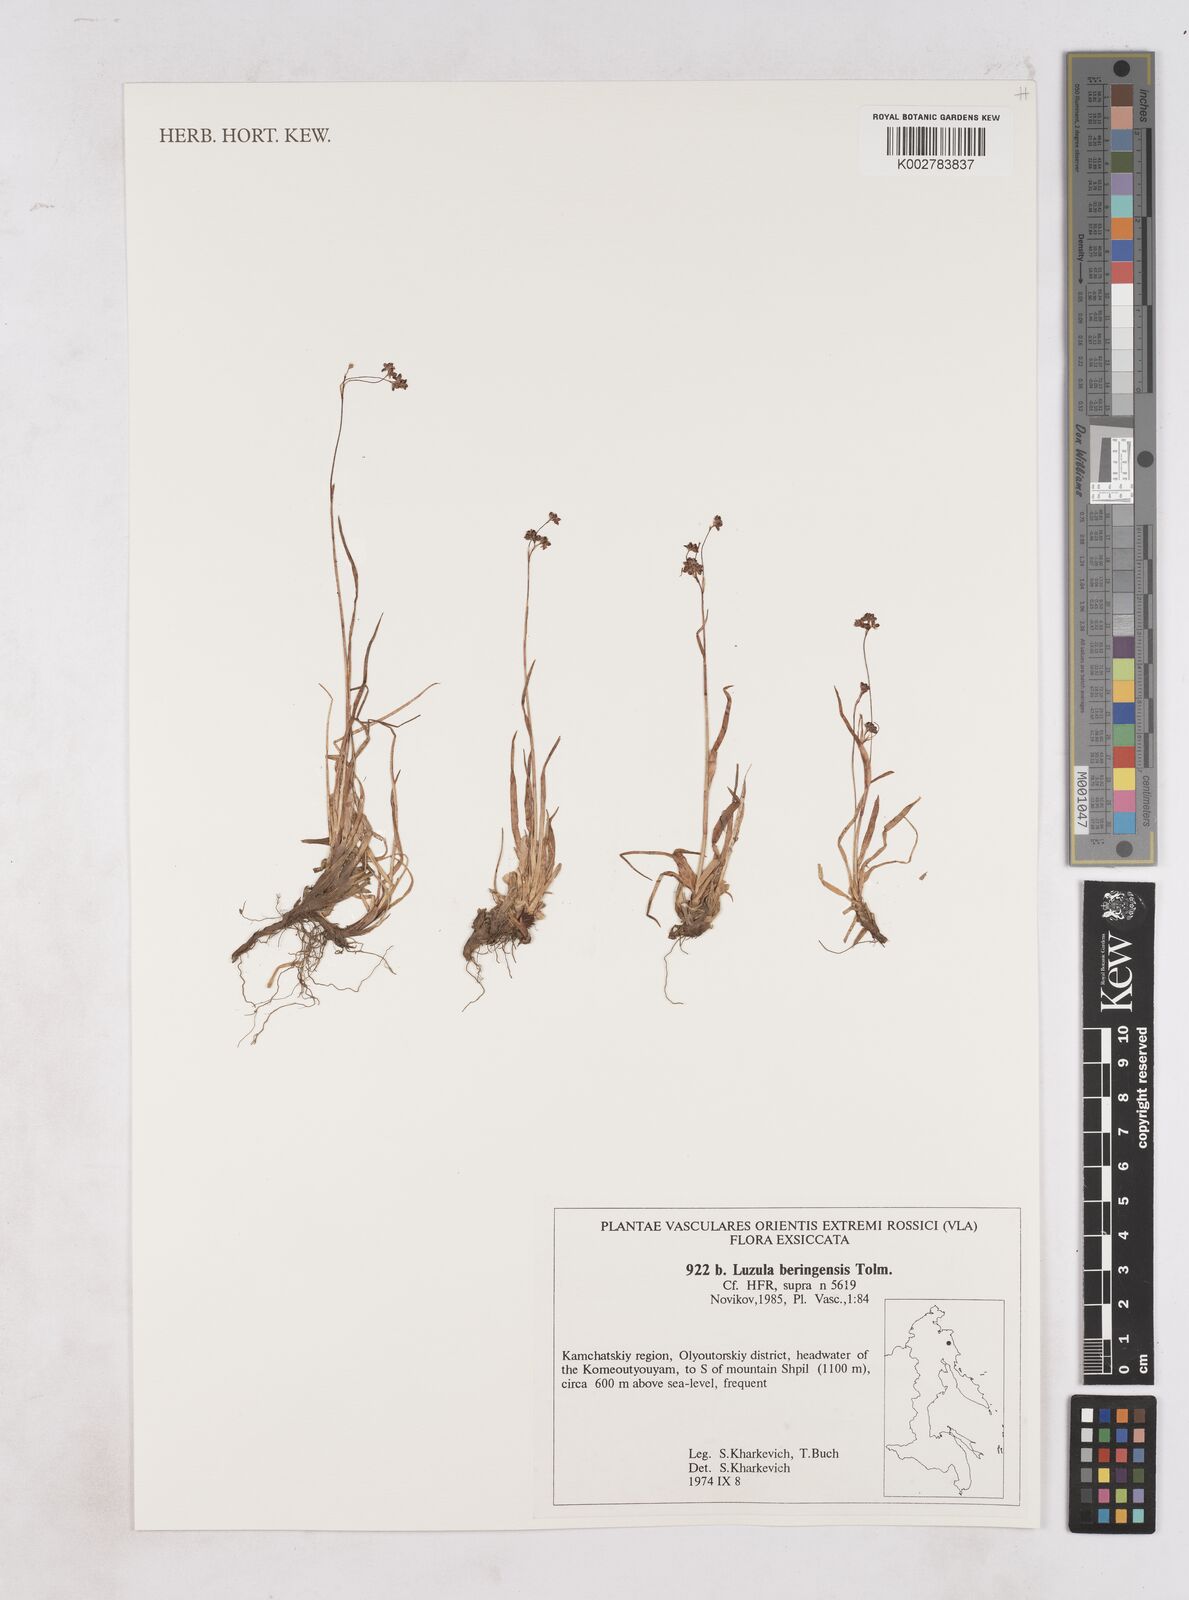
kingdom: Plantae
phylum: Tracheophyta
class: Liliopsida
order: Poales
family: Juncaceae
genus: Luzula
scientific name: Luzula arcuata
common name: Curved wood-rush
